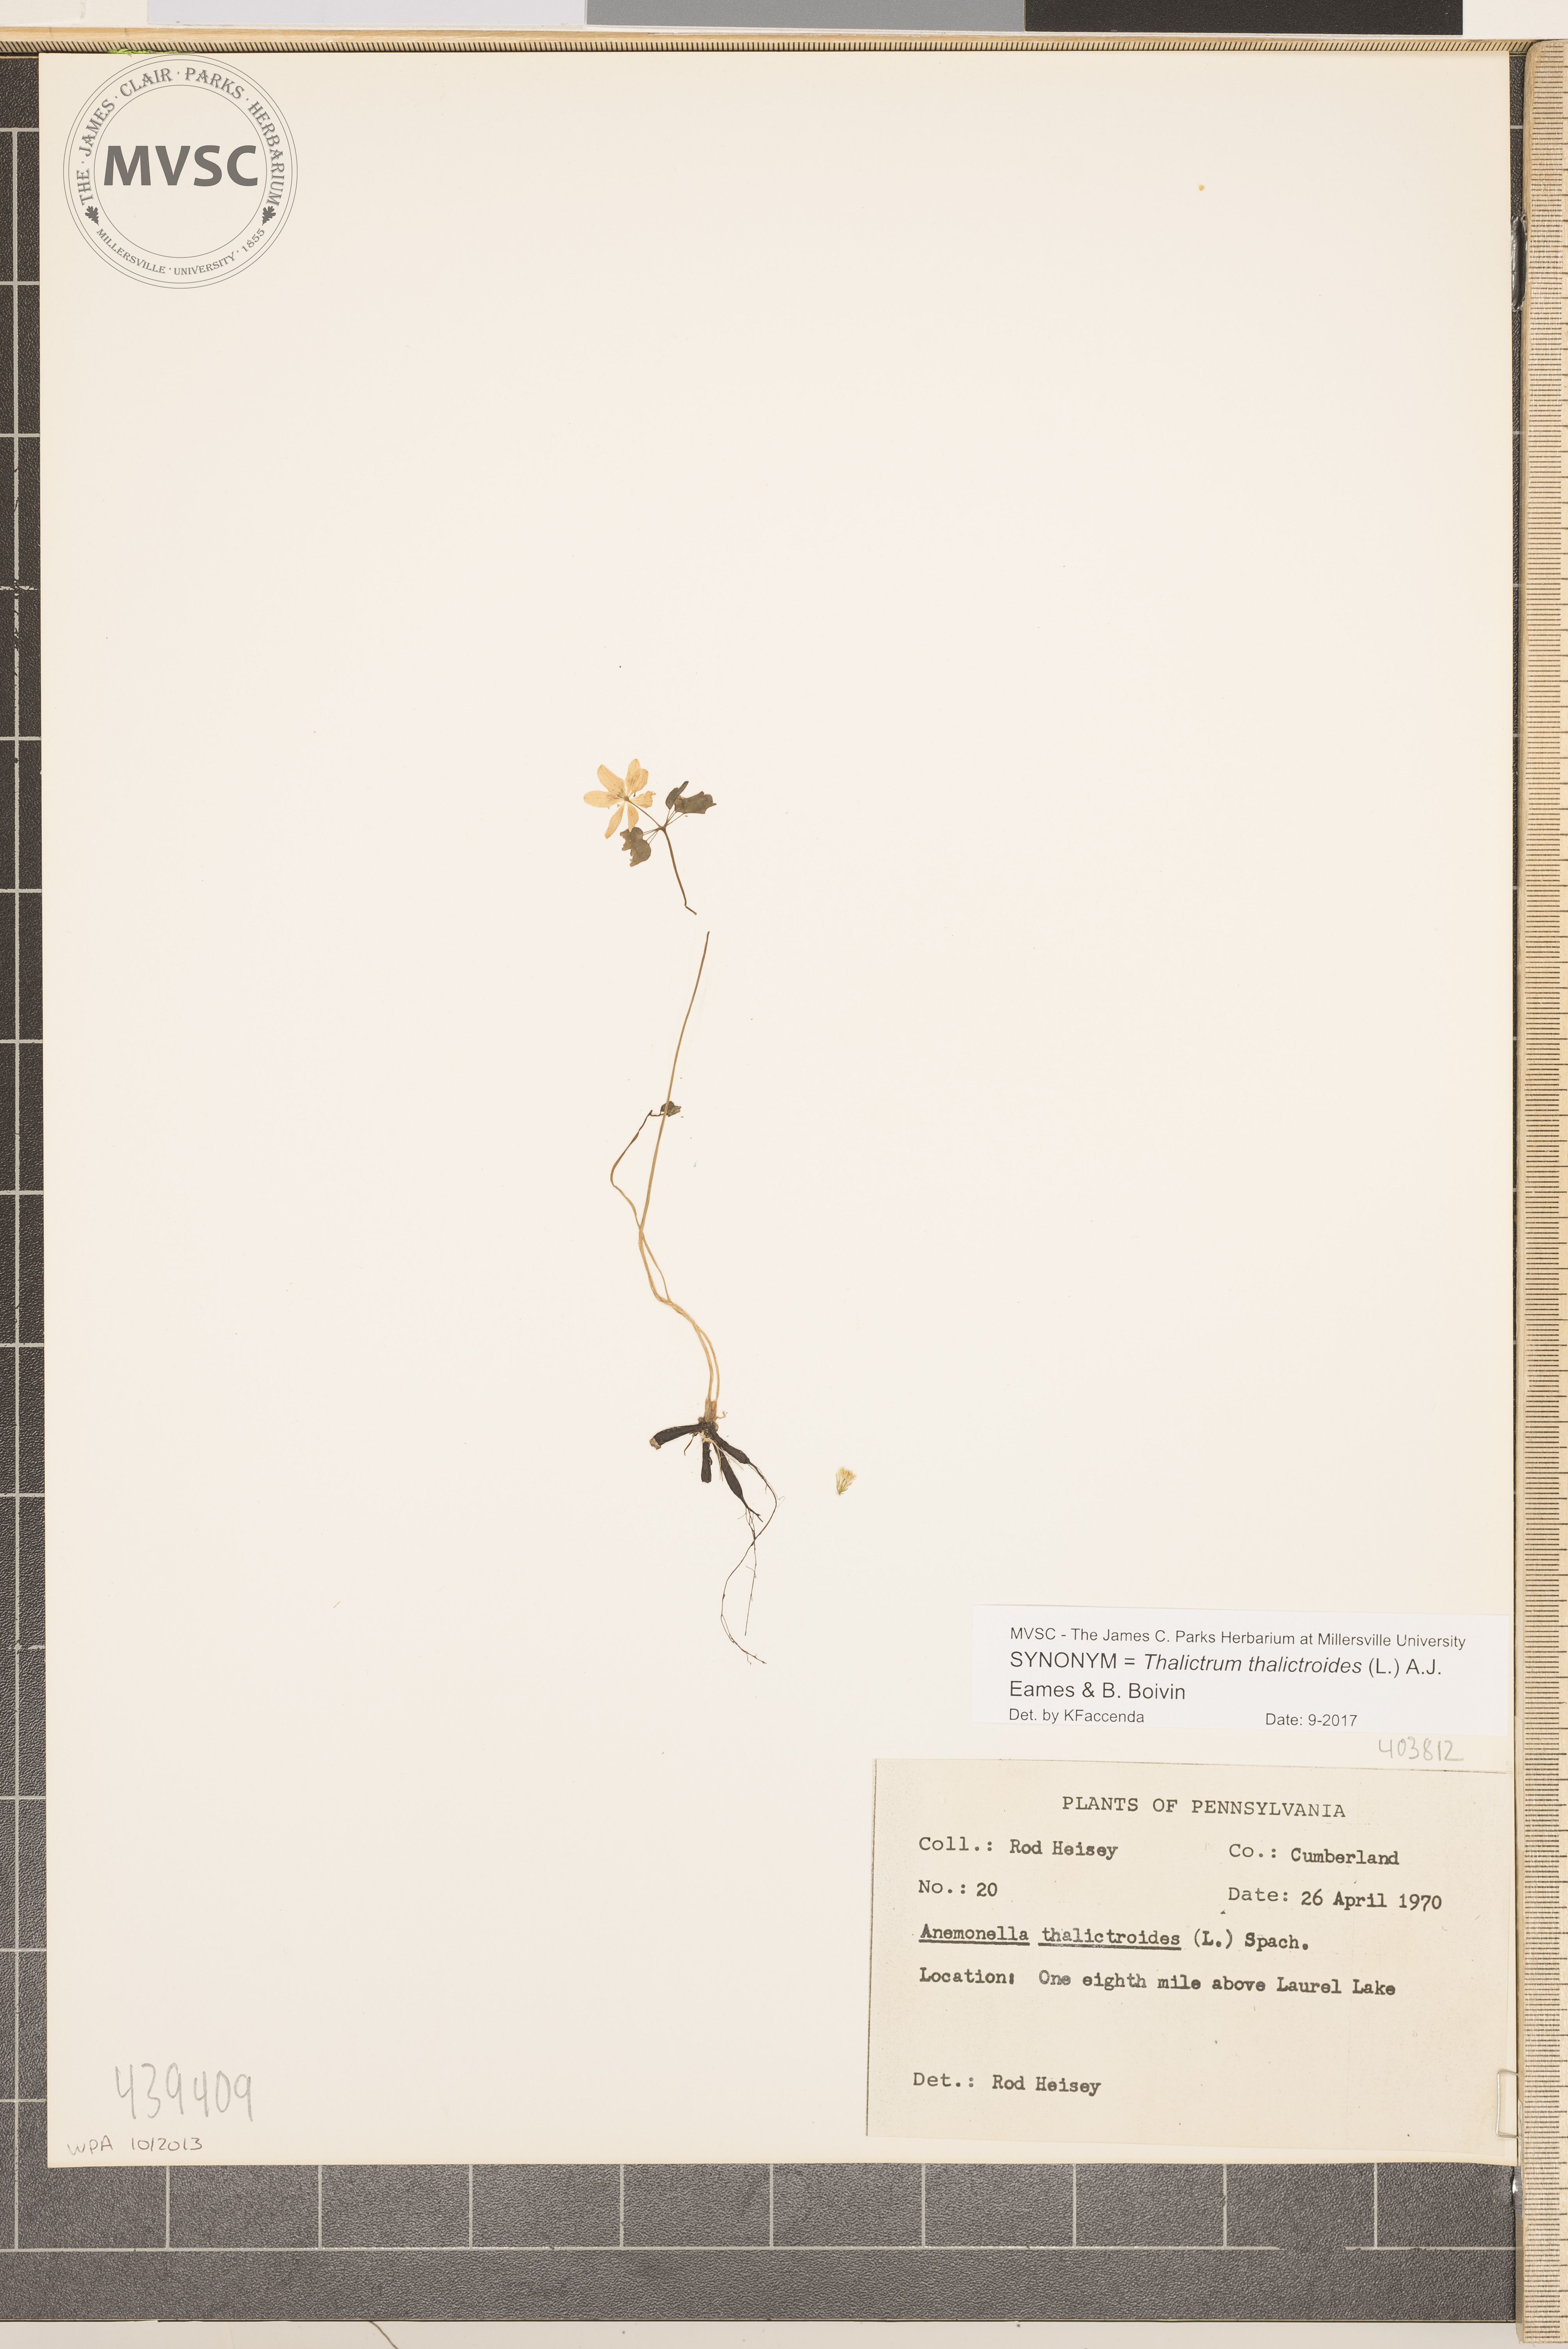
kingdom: Plantae
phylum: Tracheophyta
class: Magnoliopsida
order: Ranunculales
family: Ranunculaceae
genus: Thalictrum
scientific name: Thalictrum thalictroides
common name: Rue-anemone
